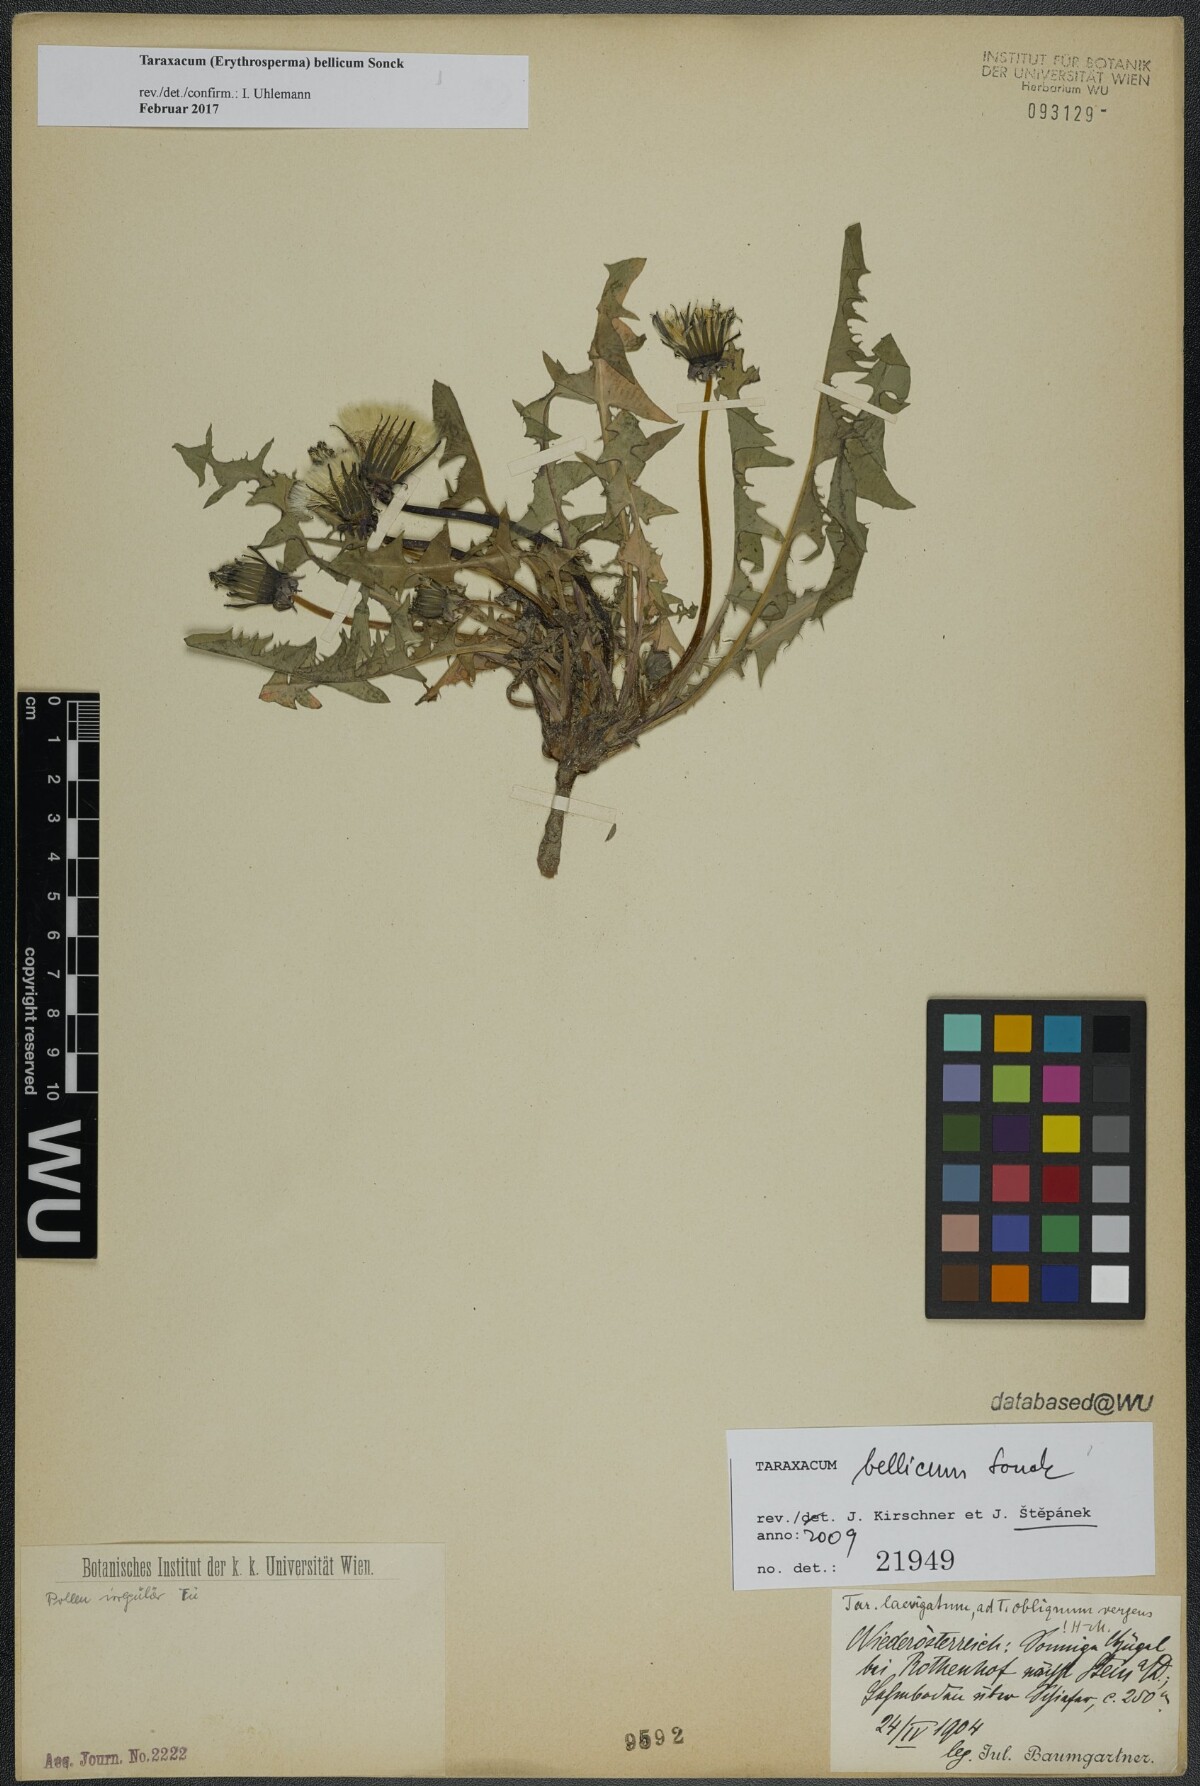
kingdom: Plantae
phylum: Tracheophyta
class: Magnoliopsida
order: Asterales
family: Asteraceae
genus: Taraxacum
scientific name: Taraxacum bellicum
